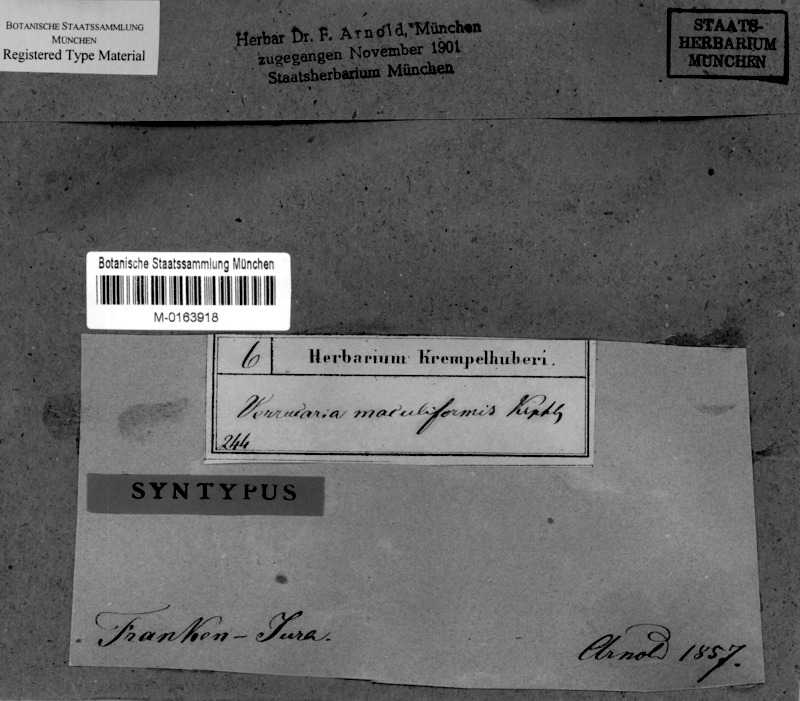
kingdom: Fungi
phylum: Ascomycota
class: Eurotiomycetes
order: Verrucariales
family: Verrucariaceae
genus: Verrucaria
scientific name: Verrucaria maculiformis
